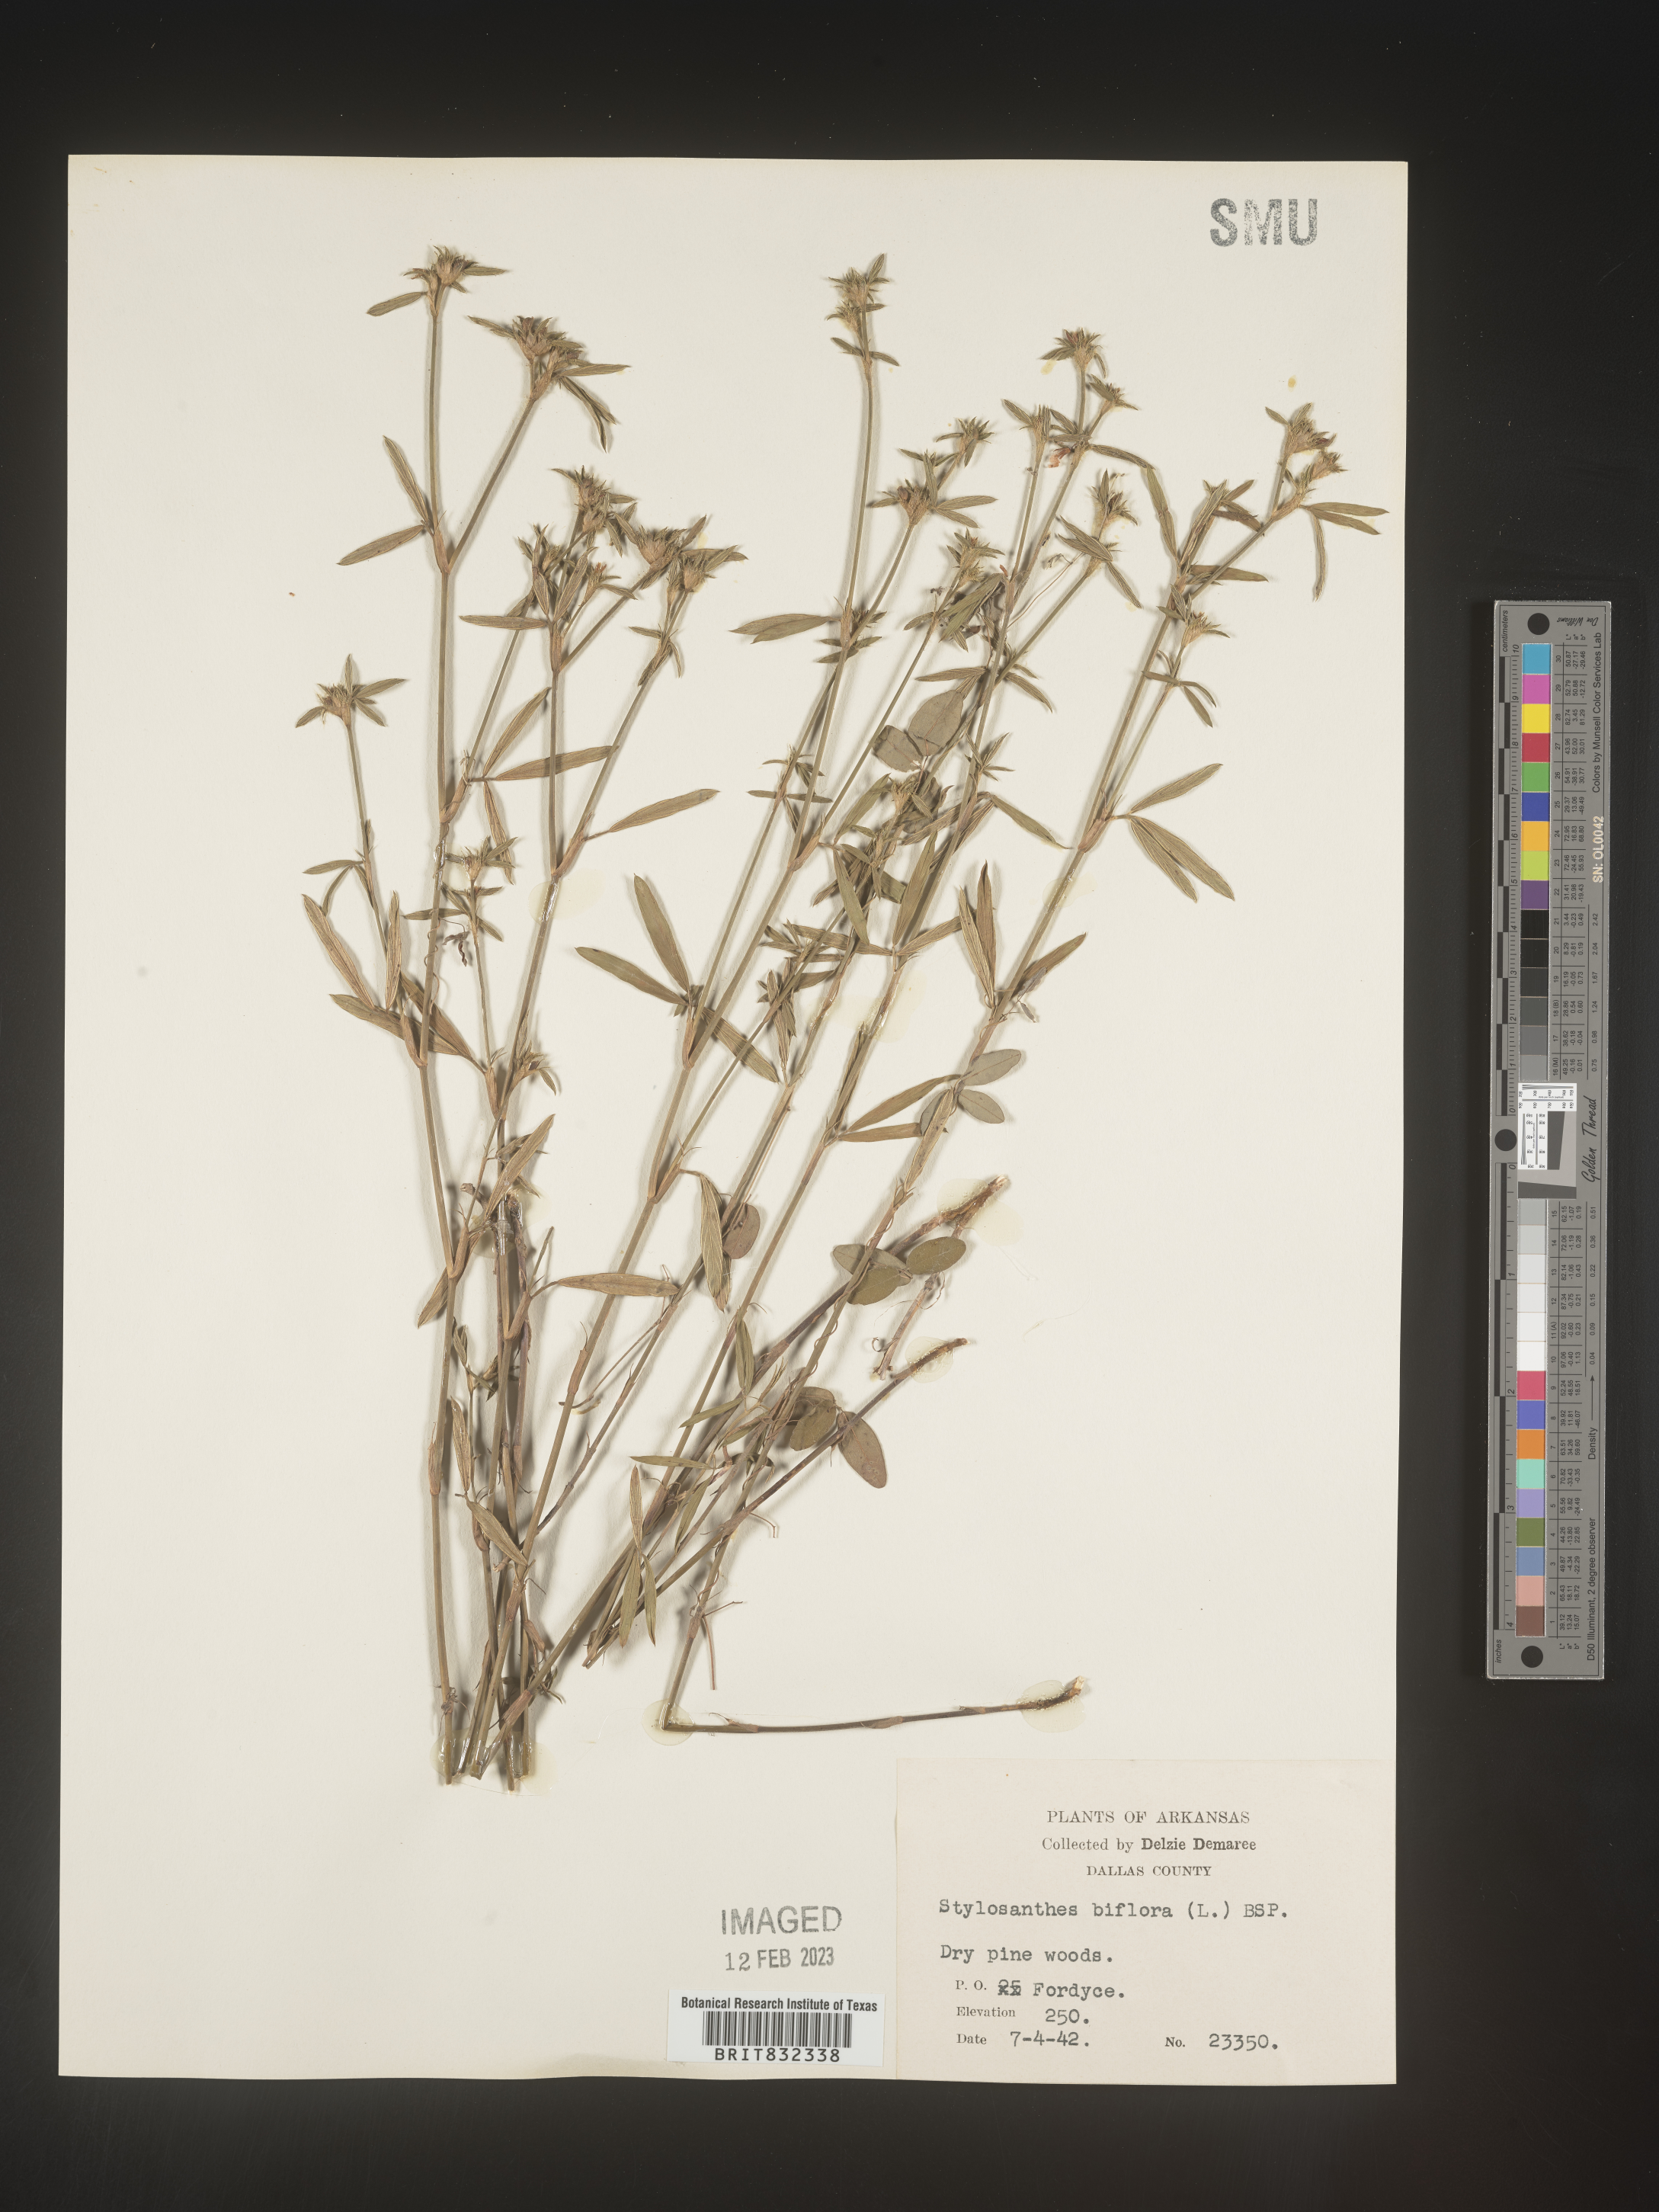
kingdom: Plantae
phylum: Tracheophyta
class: Magnoliopsida
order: Fabales
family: Fabaceae
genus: Stylosanthes
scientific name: Stylosanthes biflora
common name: Two-flower pencil-flower
